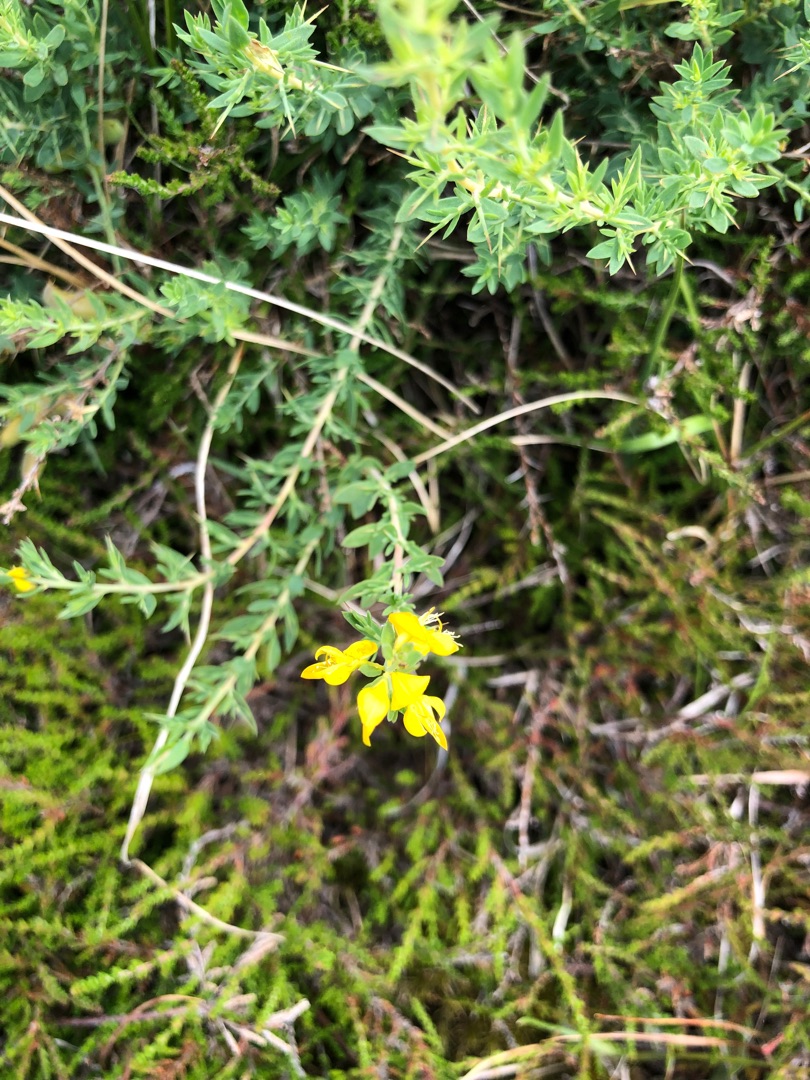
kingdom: Plantae
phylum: Tracheophyta
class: Magnoliopsida
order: Fabales
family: Fabaceae
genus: Genista
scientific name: Genista anglica
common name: Engelsk visse
